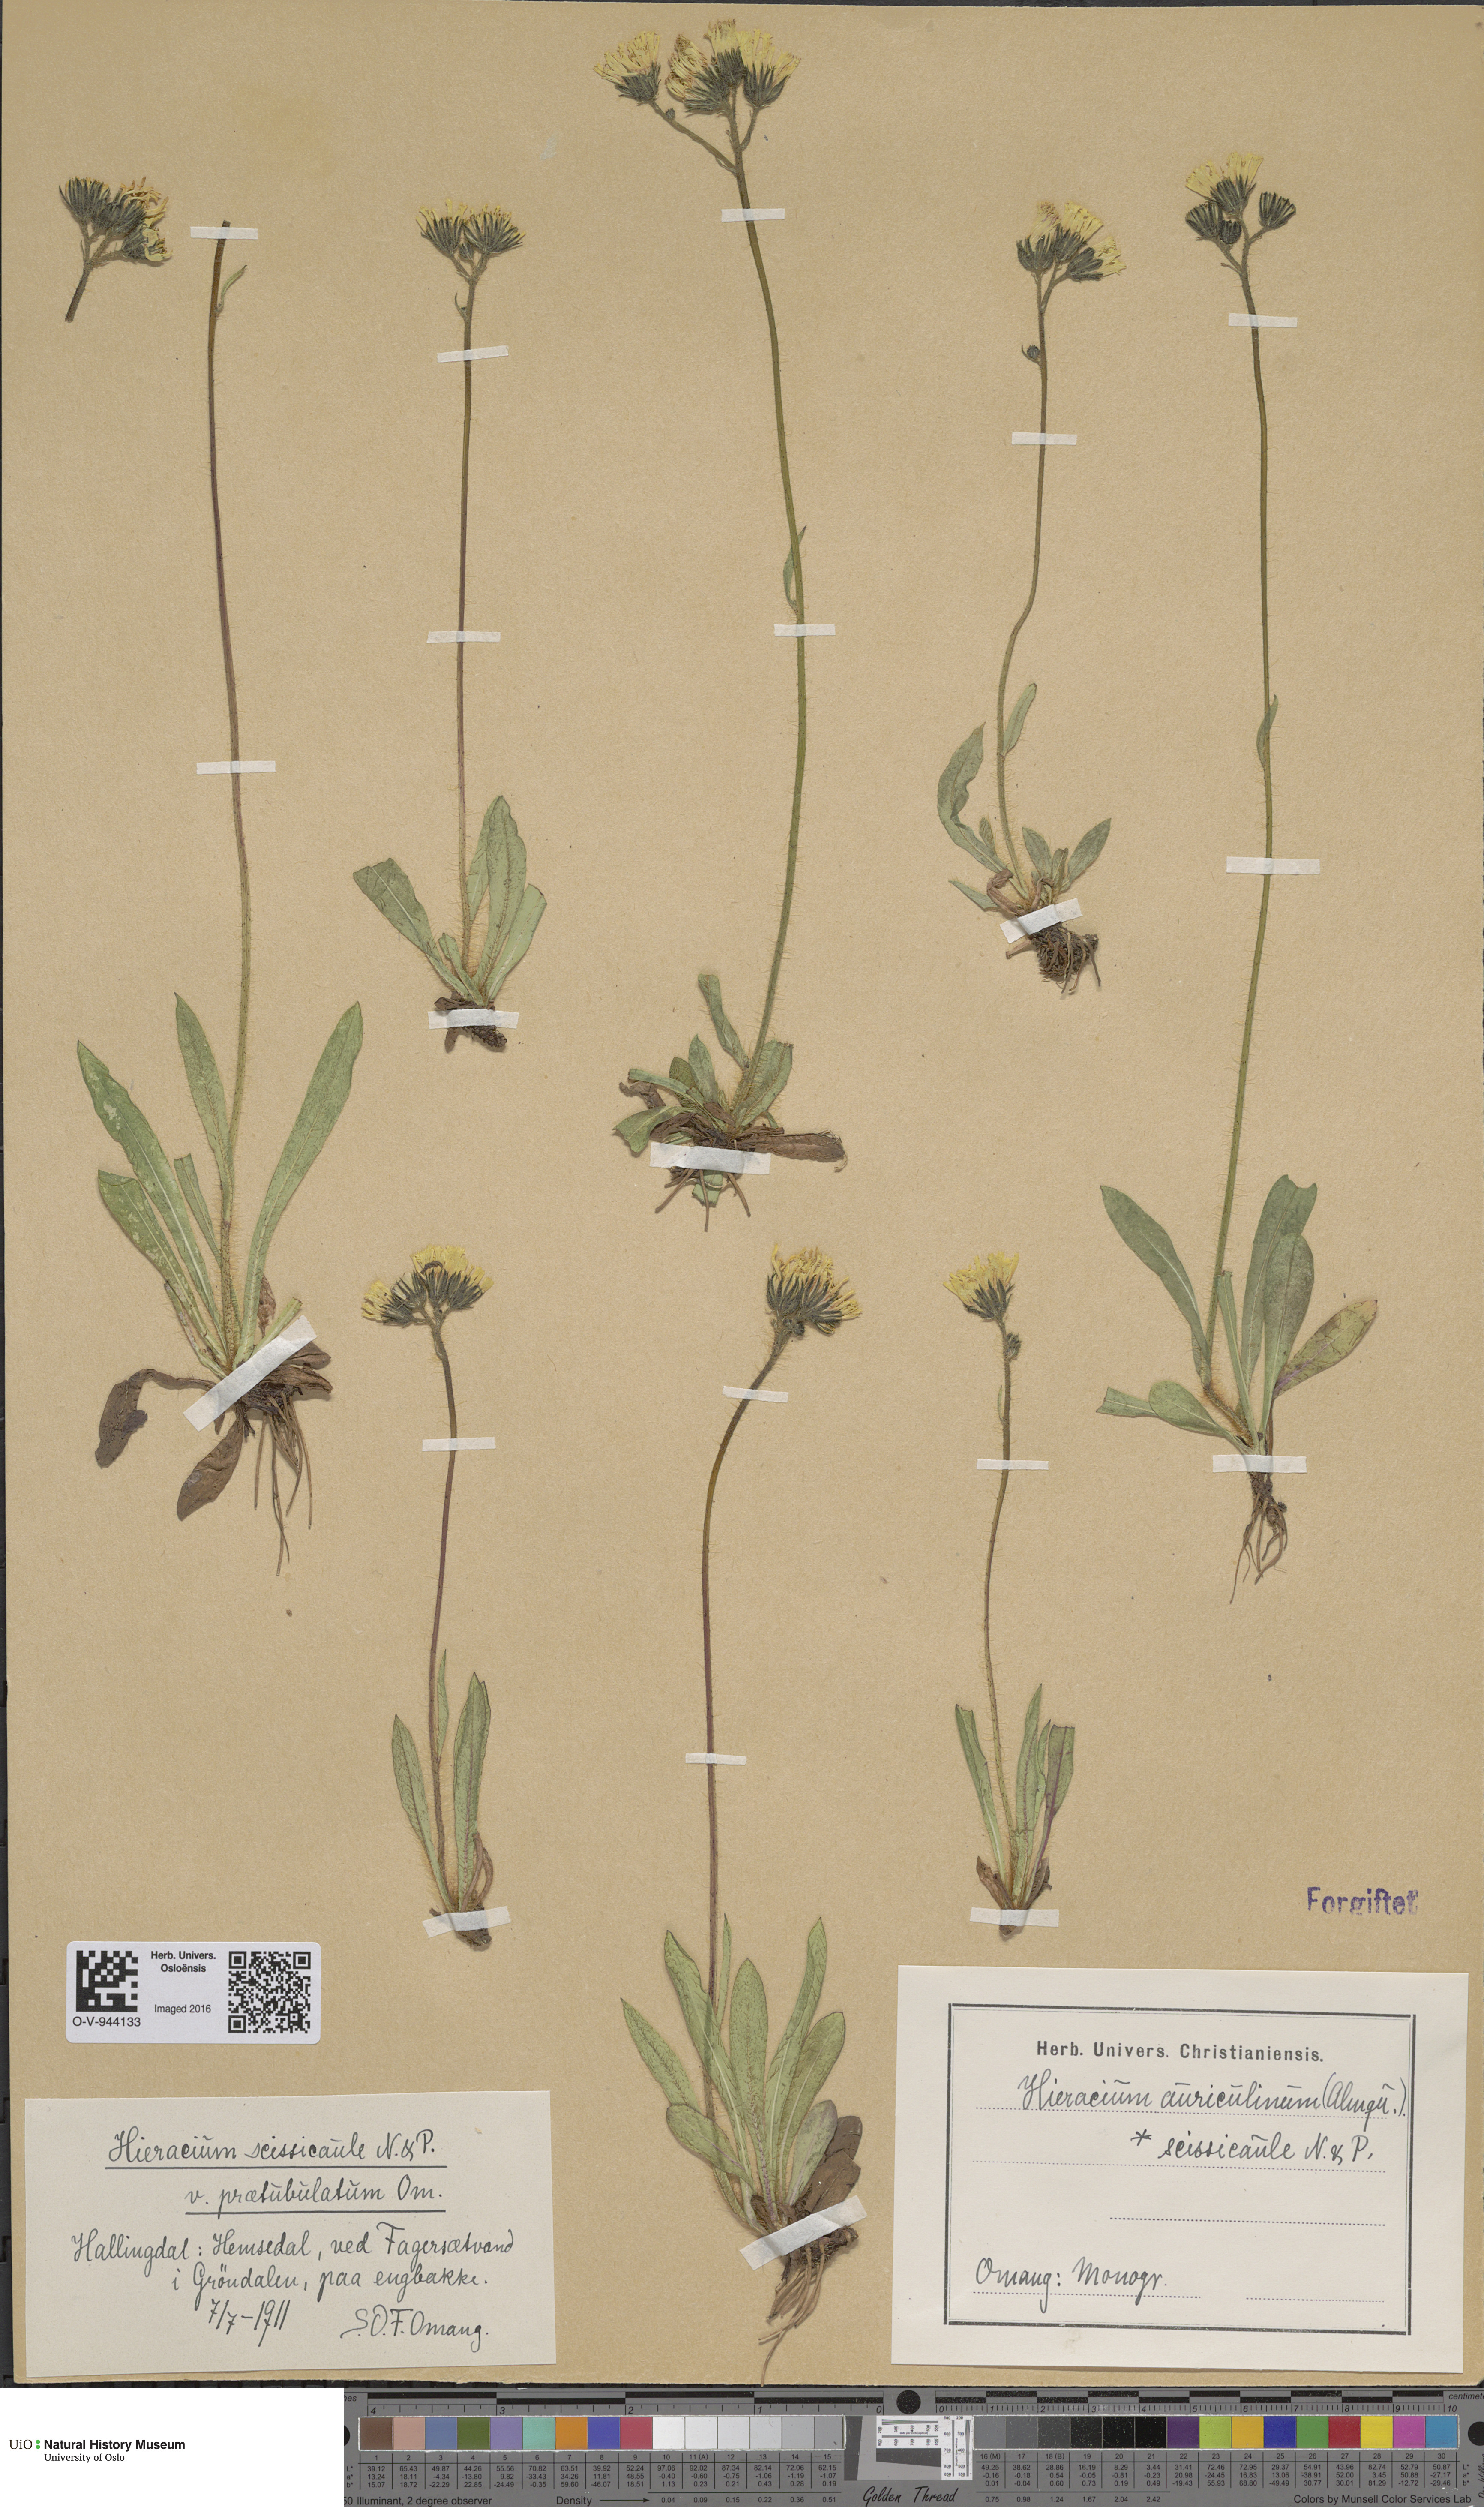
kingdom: Plantae
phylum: Tracheophyta
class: Magnoliopsida
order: Asterales
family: Asteraceae
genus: Pilosella
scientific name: Pilosella dubia
